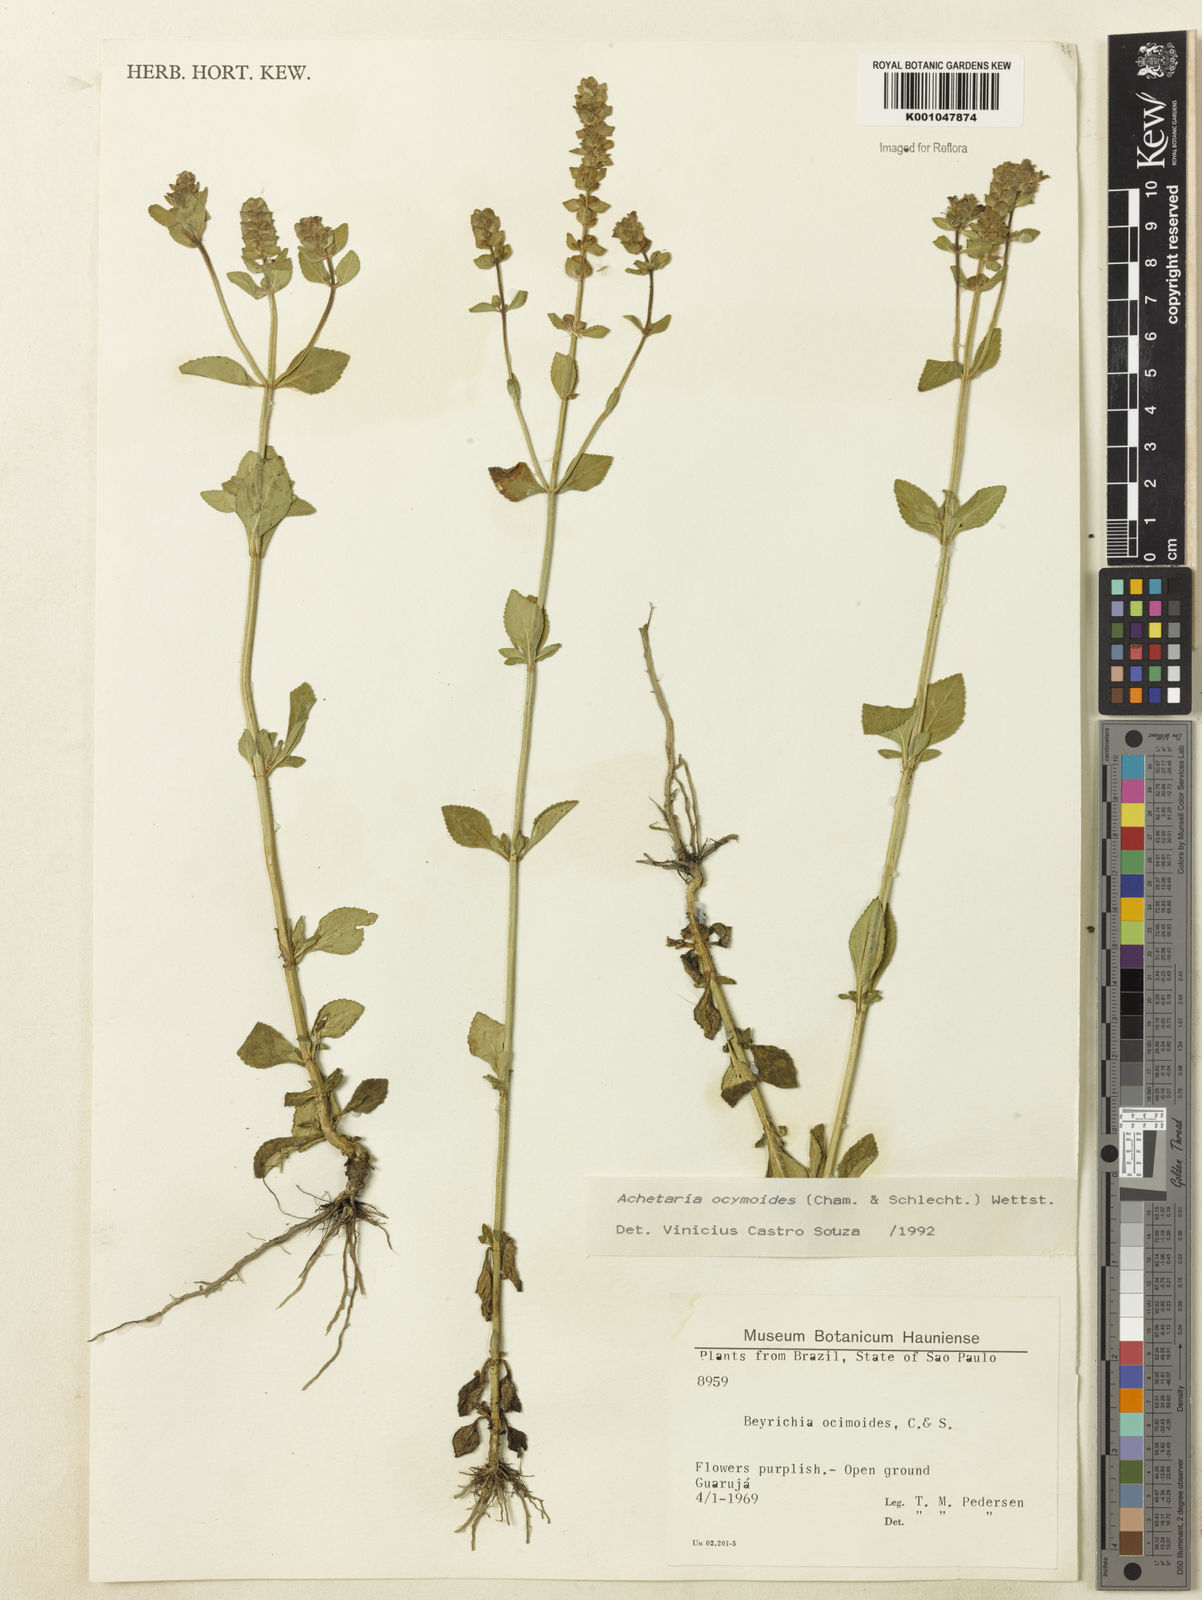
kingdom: Plantae
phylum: Tracheophyta
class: Magnoliopsida
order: Lamiales
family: Plantaginaceae
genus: Matourea
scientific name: Matourea ocymoides
